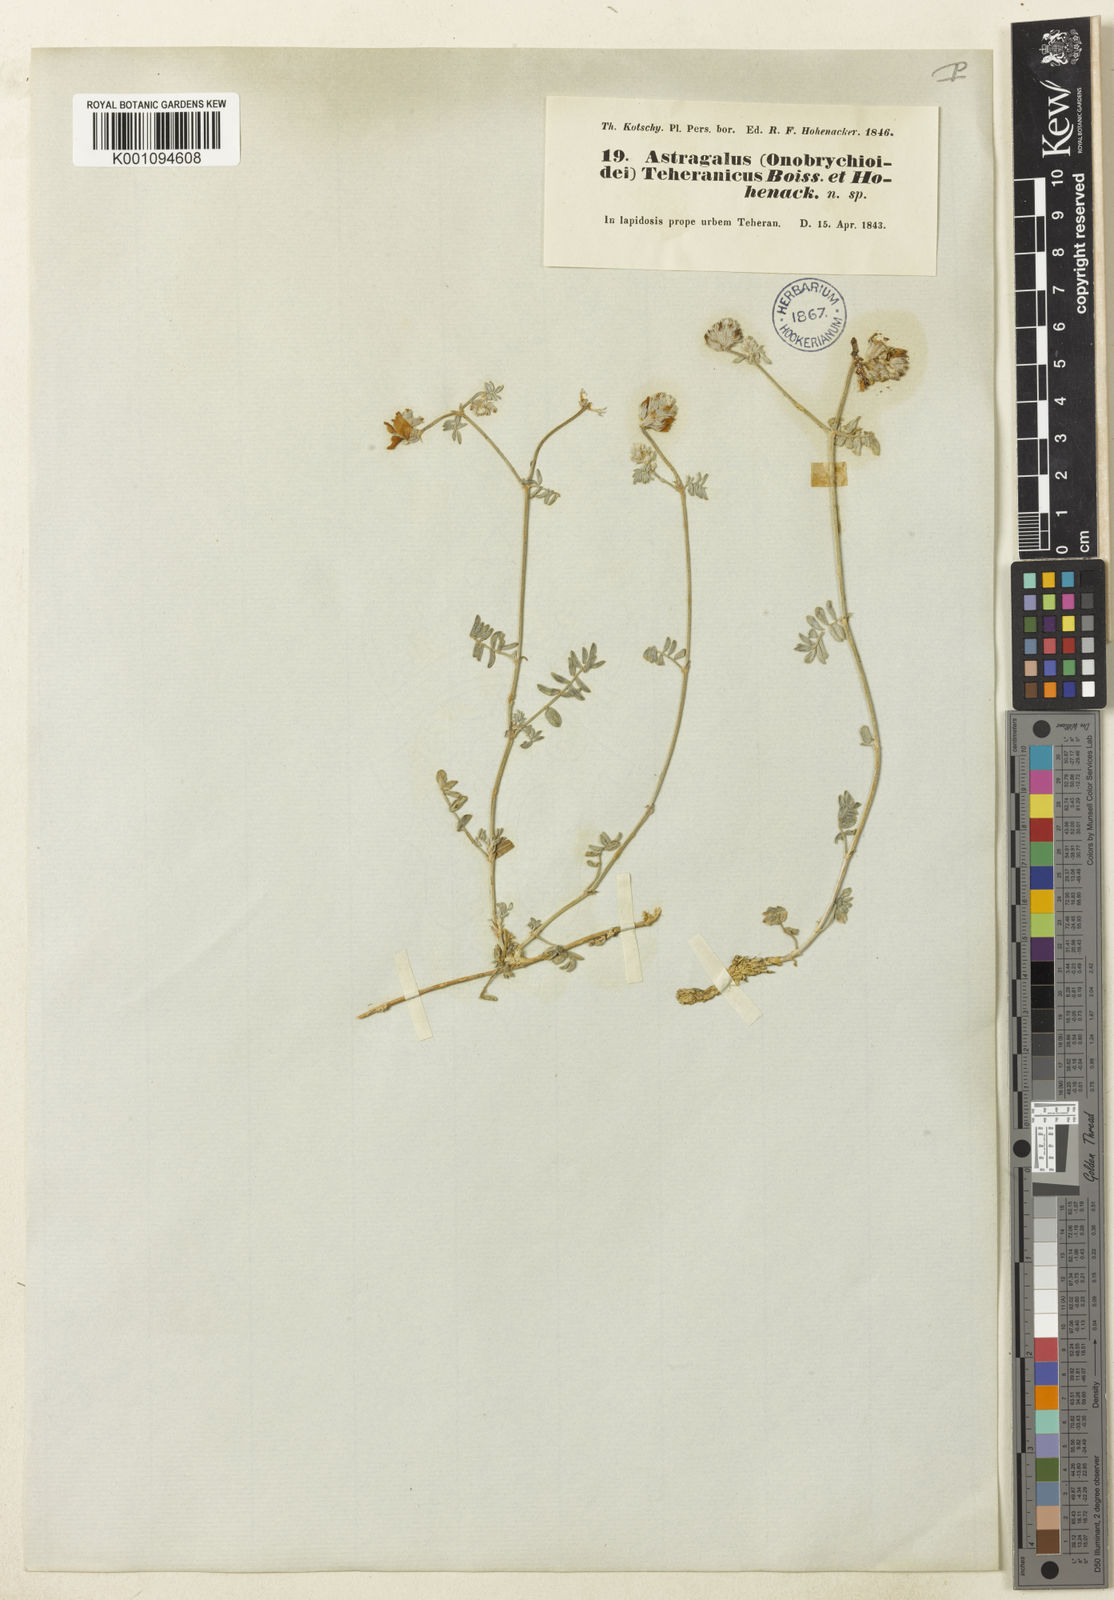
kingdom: Plantae
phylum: Tracheophyta
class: Magnoliopsida
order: Fabales
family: Fabaceae
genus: Astragalus
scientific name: Astragalus
